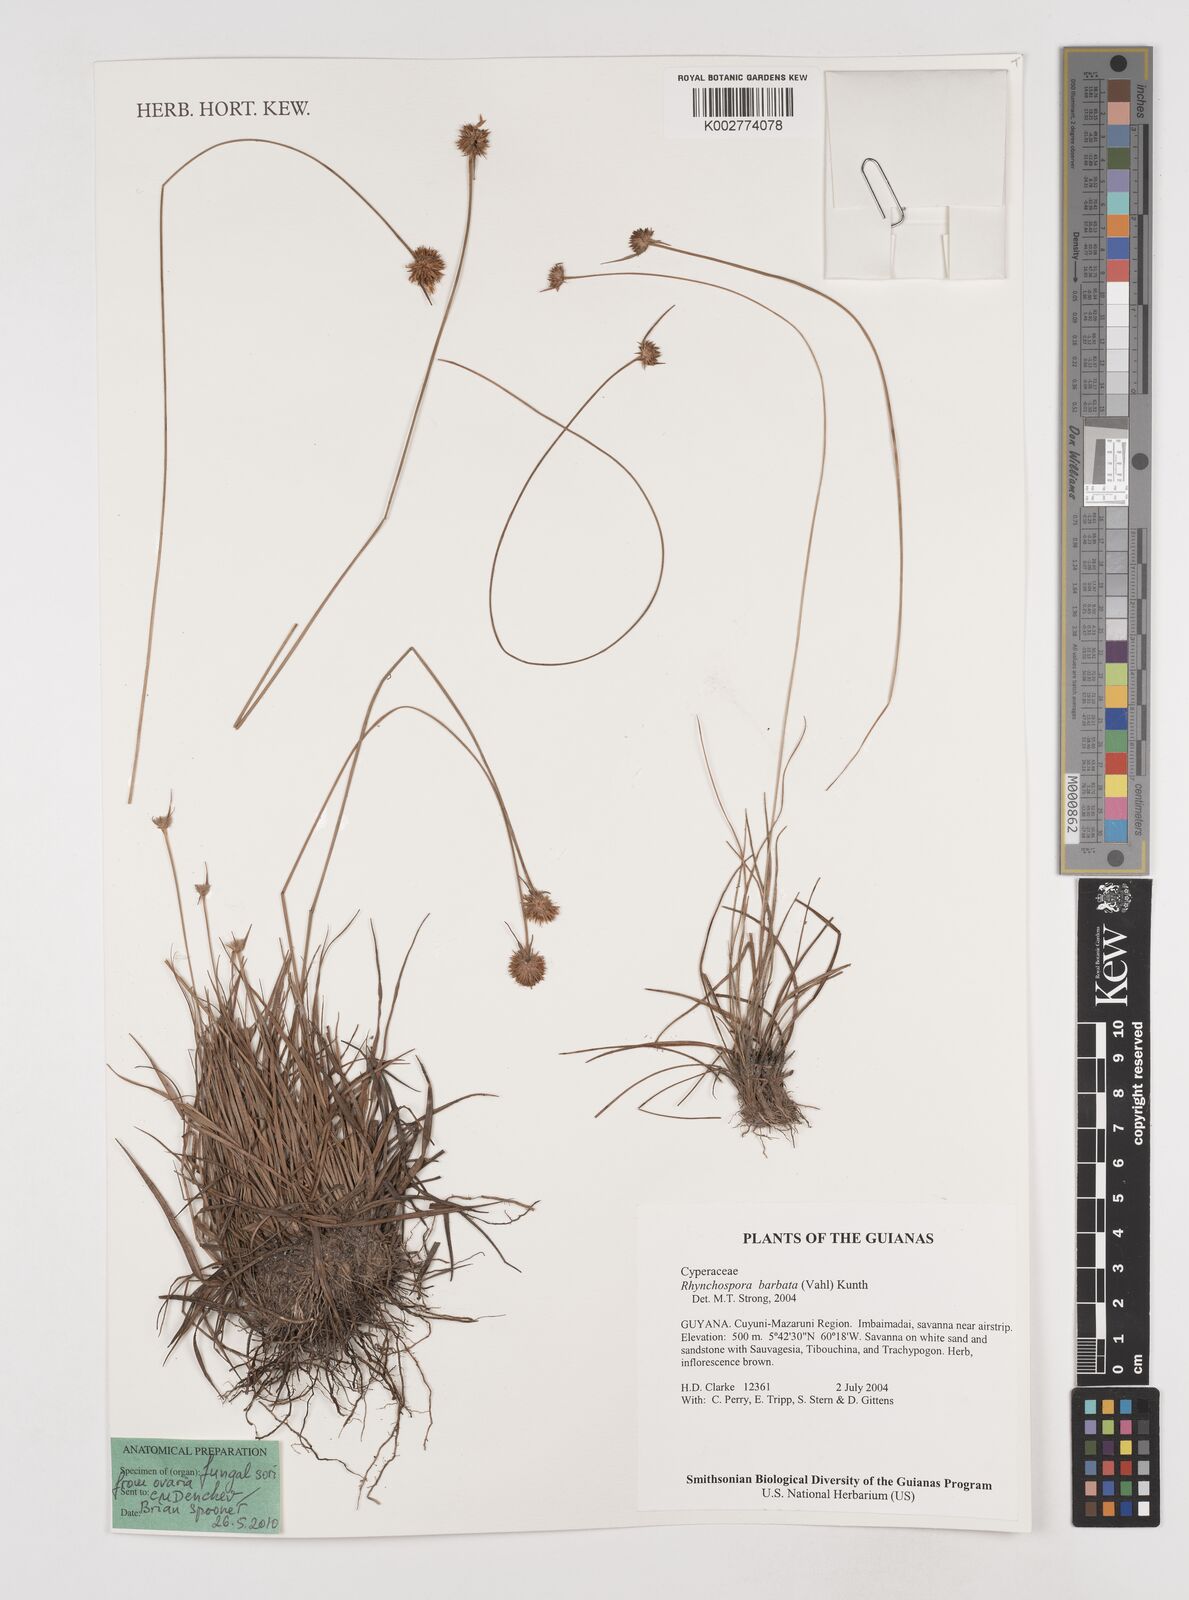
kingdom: Plantae
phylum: Tracheophyta
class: Liliopsida
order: Poales
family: Cyperaceae
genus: Rhynchospora
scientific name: Rhynchospora barbata
